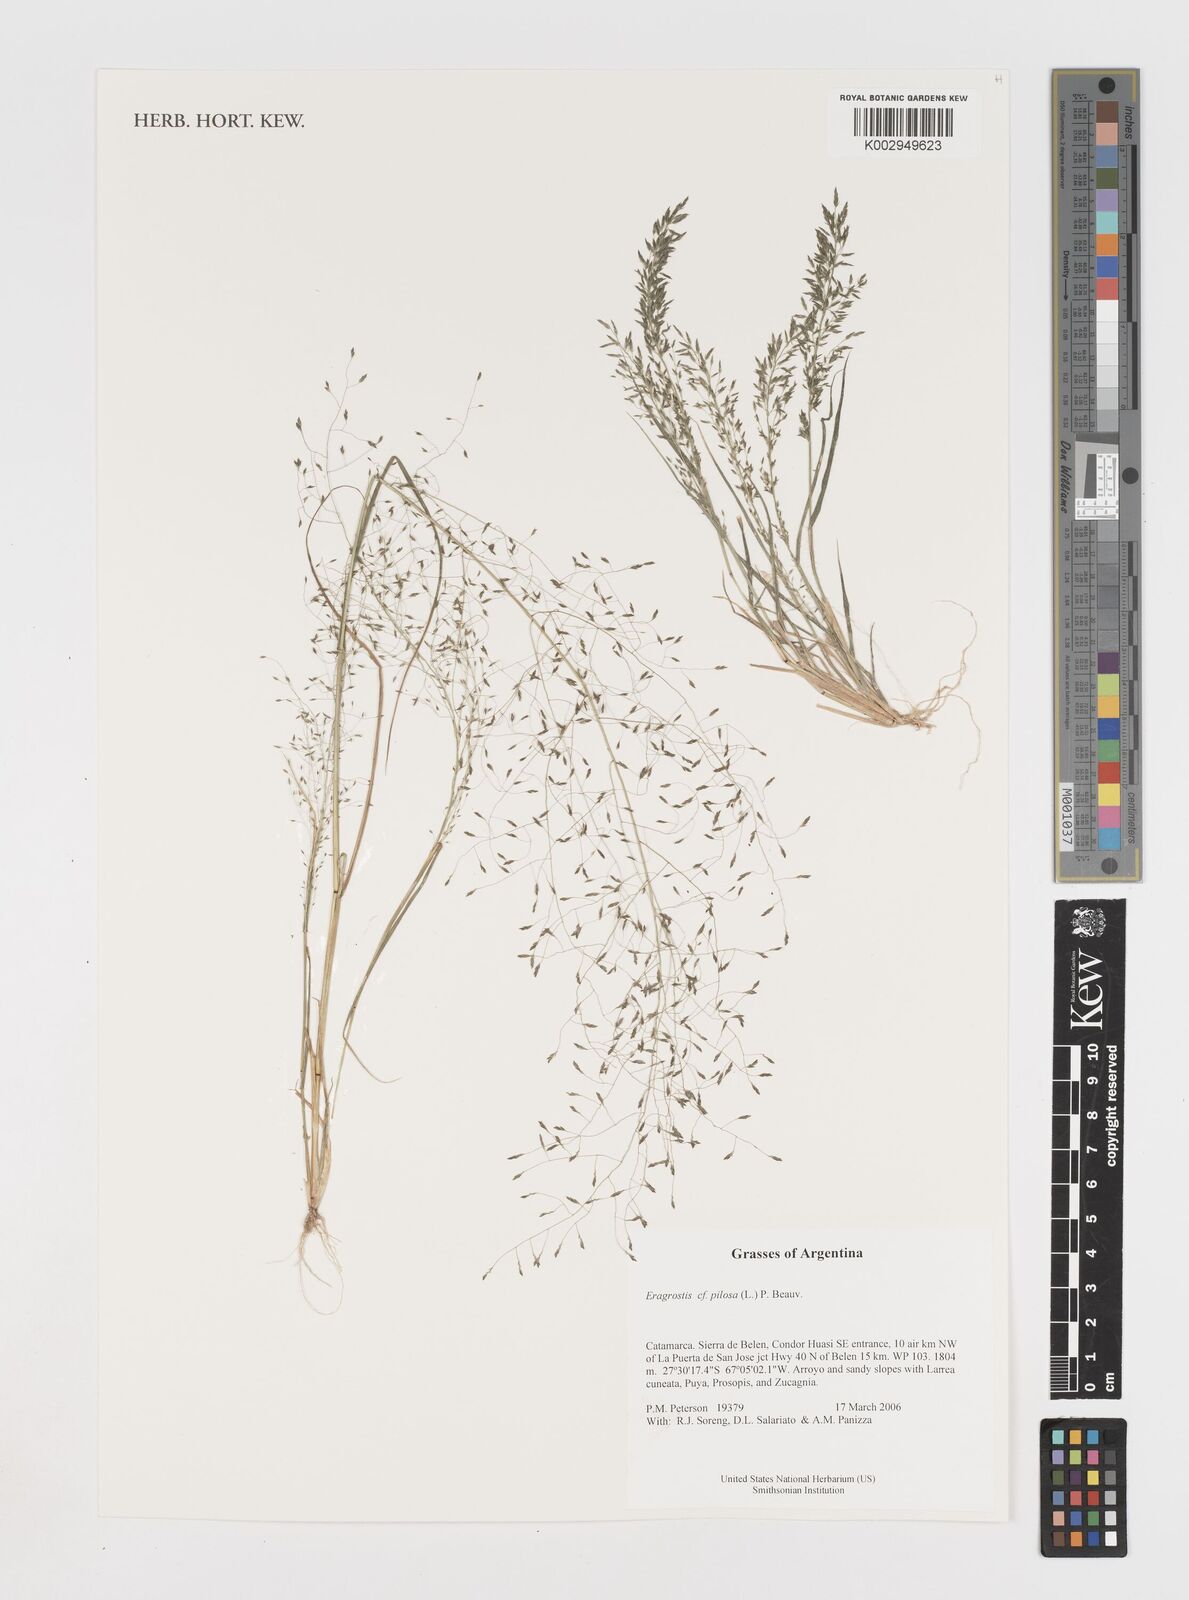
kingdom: Plantae
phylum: Tracheophyta
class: Liliopsida
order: Poales
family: Poaceae
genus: Eragrostis
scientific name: Eragrostis pilosa
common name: Indian lovegrass
